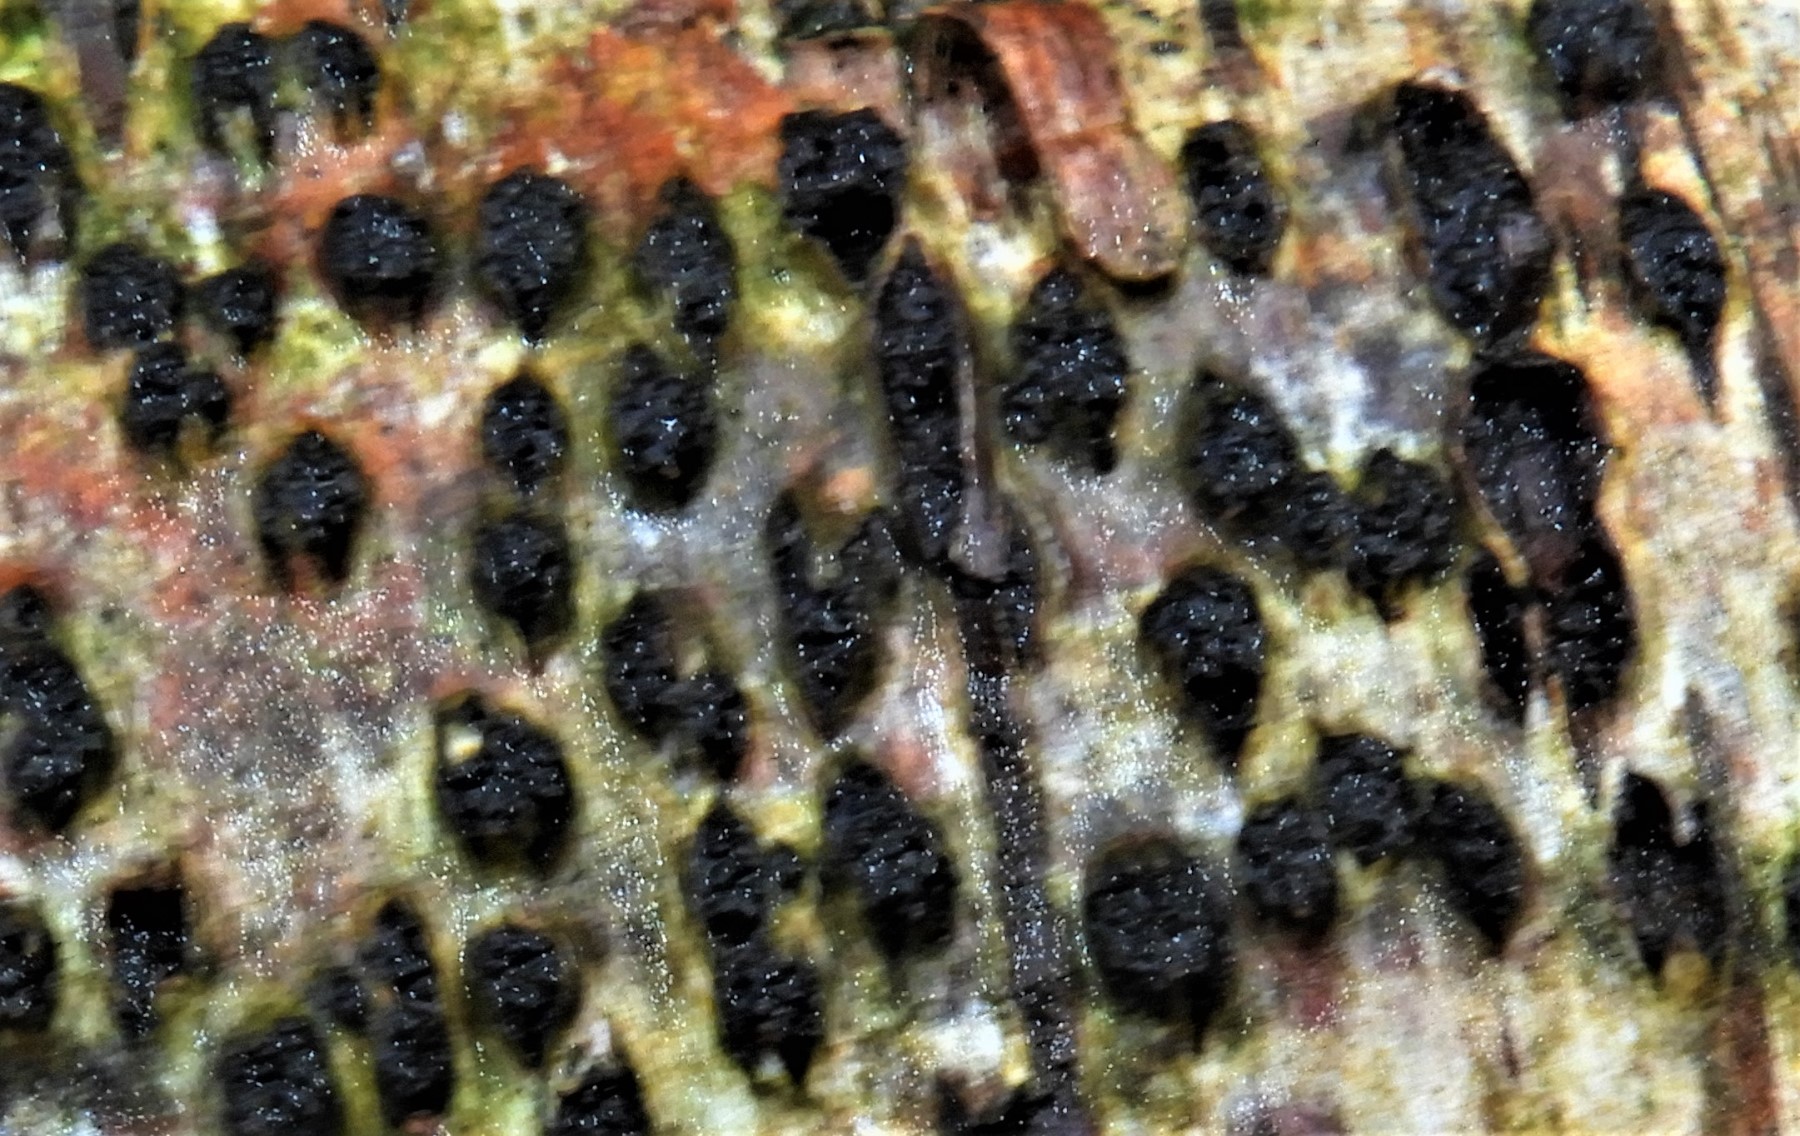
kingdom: Fungi
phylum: Ascomycota
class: Sordariomycetes
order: Xylariales
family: Diatrypaceae
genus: Diatrypella
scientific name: Diatrypella favacea
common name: Birch blackhead
